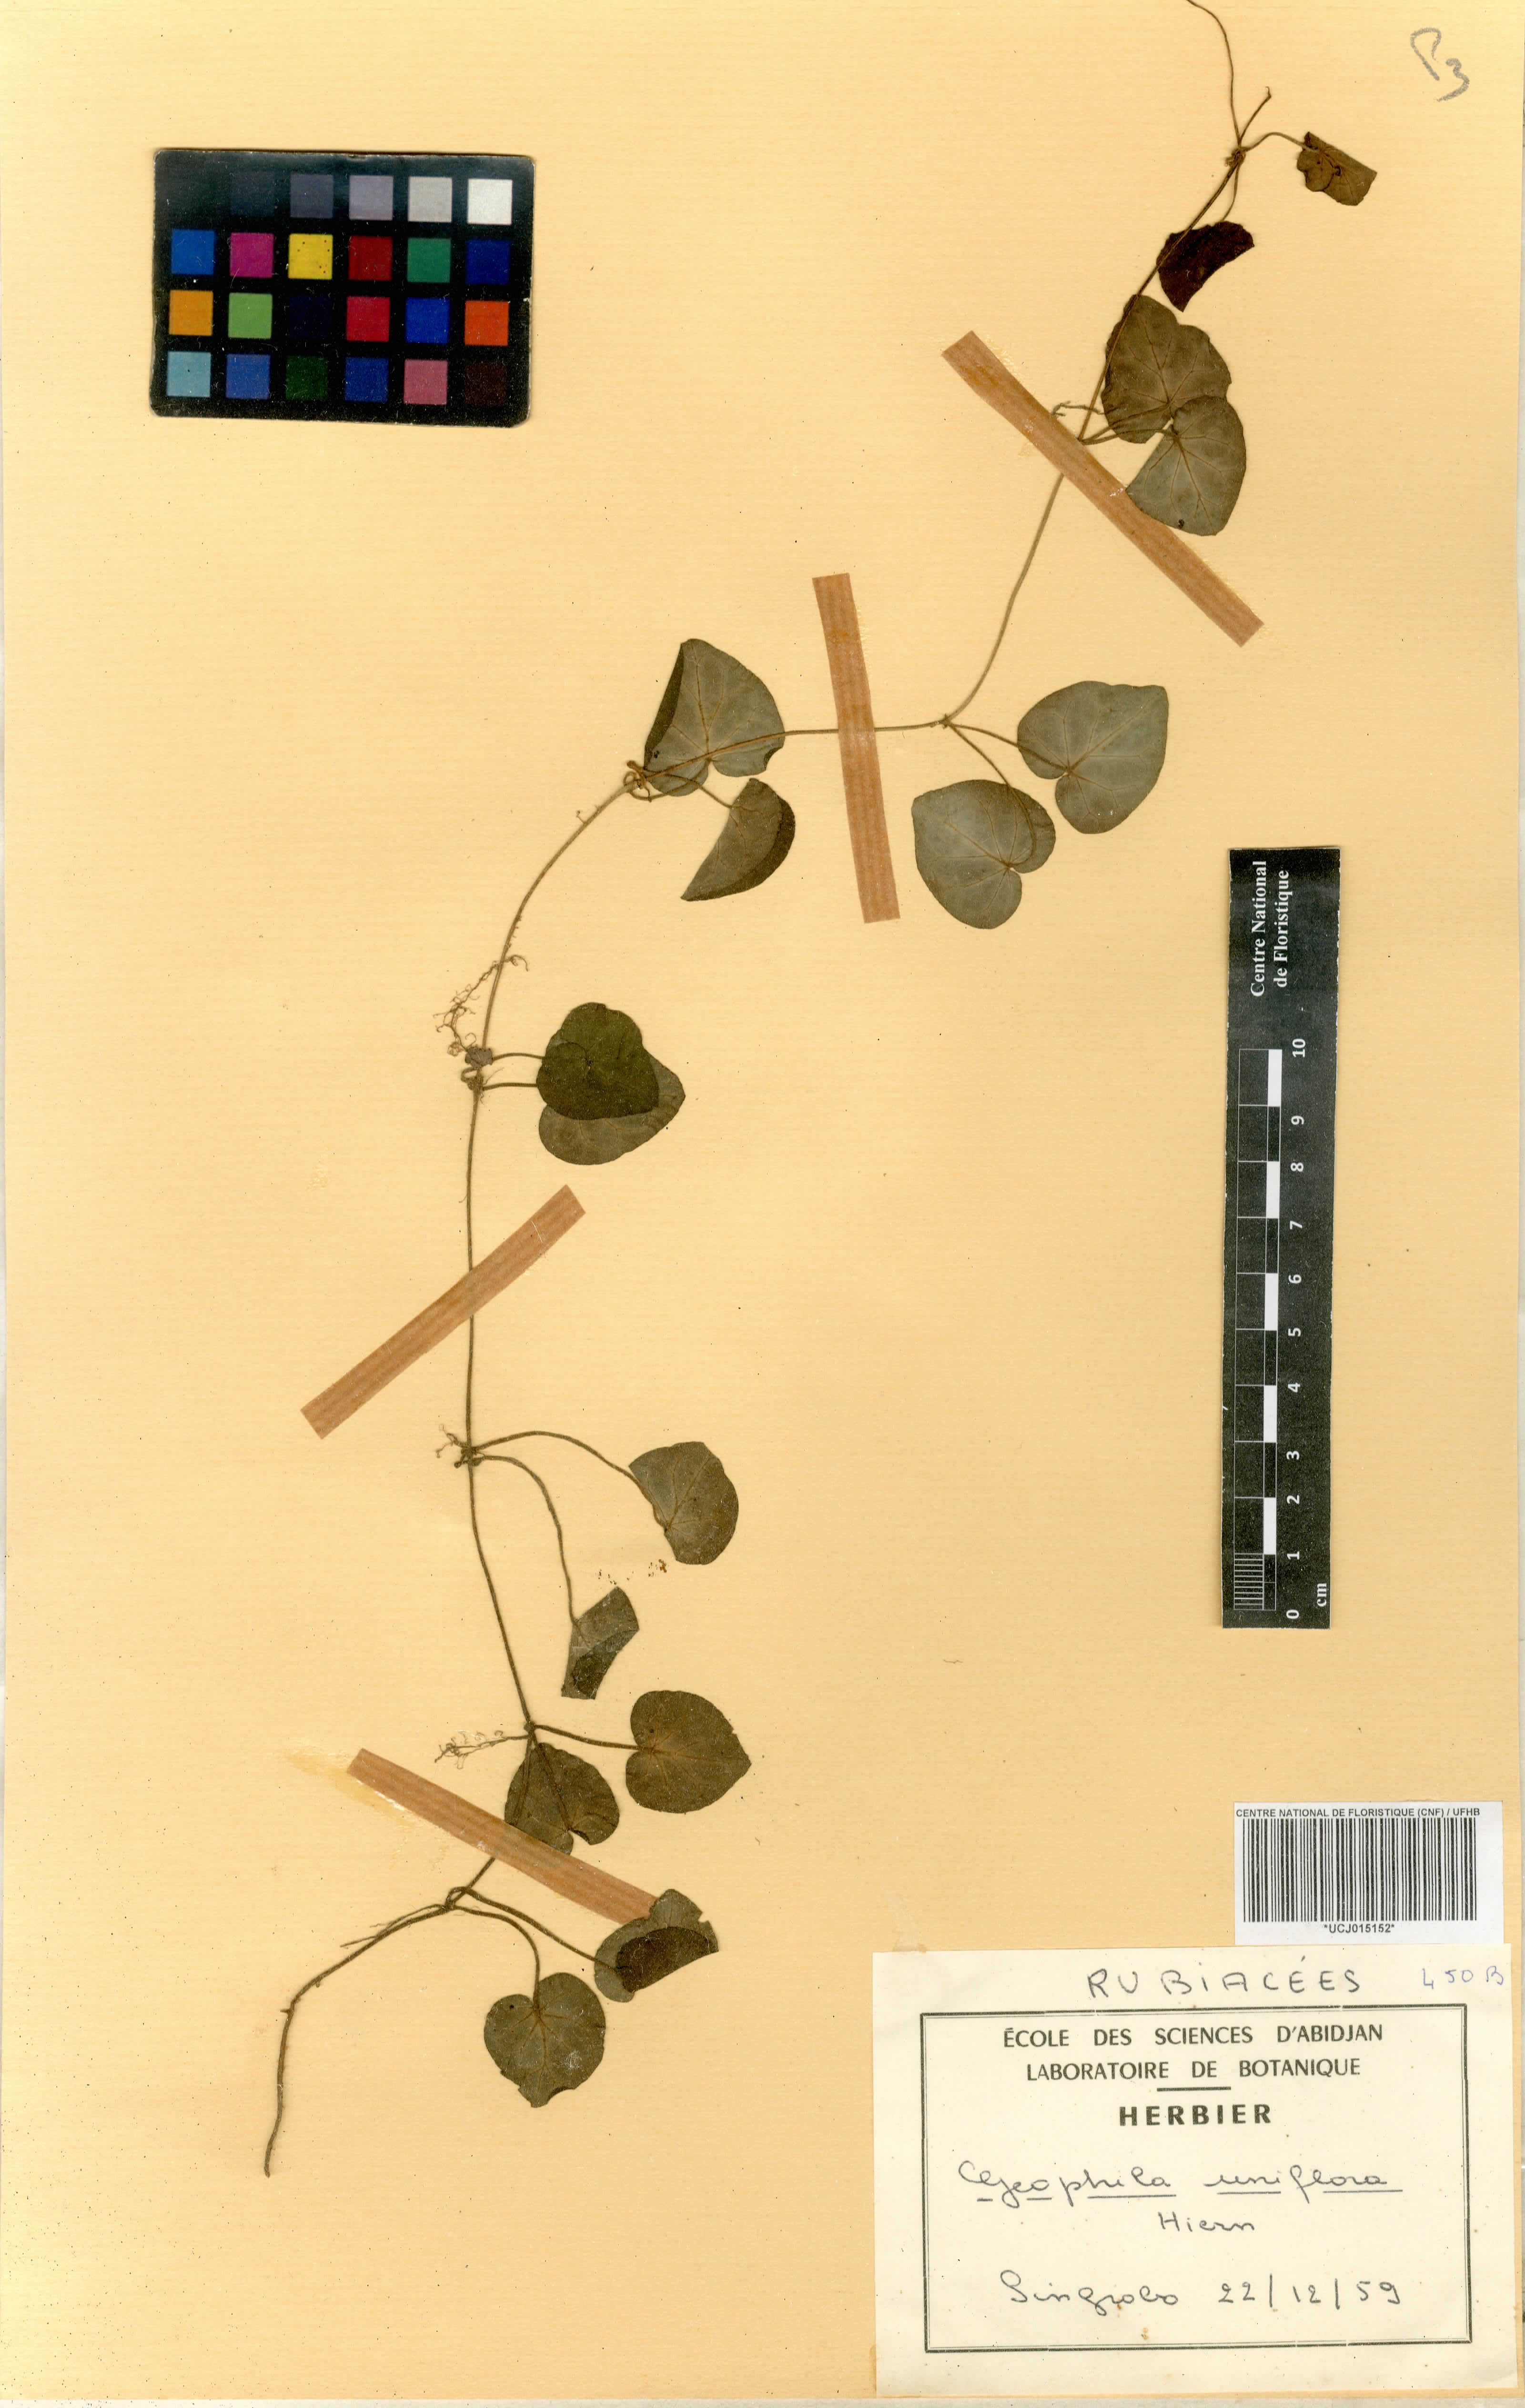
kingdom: Plantae
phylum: Tracheophyta
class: Magnoliopsida
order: Gentianales
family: Rubiaceae
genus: Geophila
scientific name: Geophila herbacea
